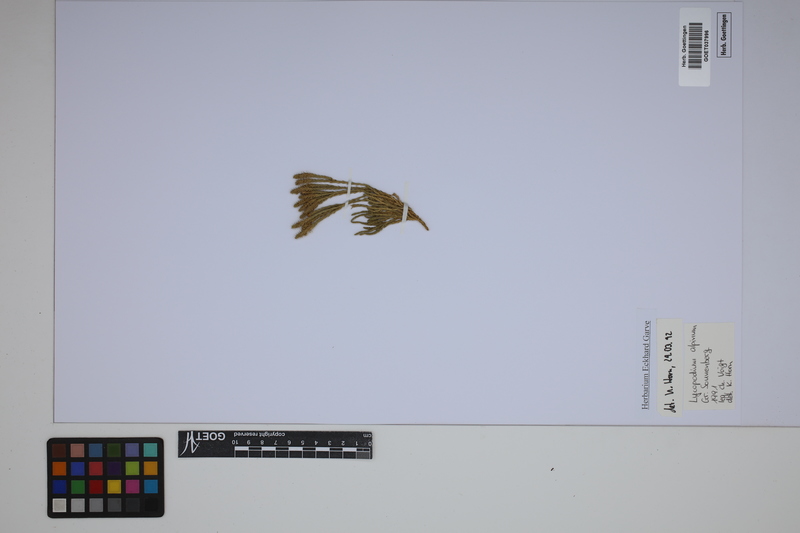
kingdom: Plantae
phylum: Tracheophyta
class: Lycopodiopsida
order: Lycopodiales
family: Lycopodiaceae
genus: Diphasiastrum
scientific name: Diphasiastrum alpinum
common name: Alpine clubmoss
